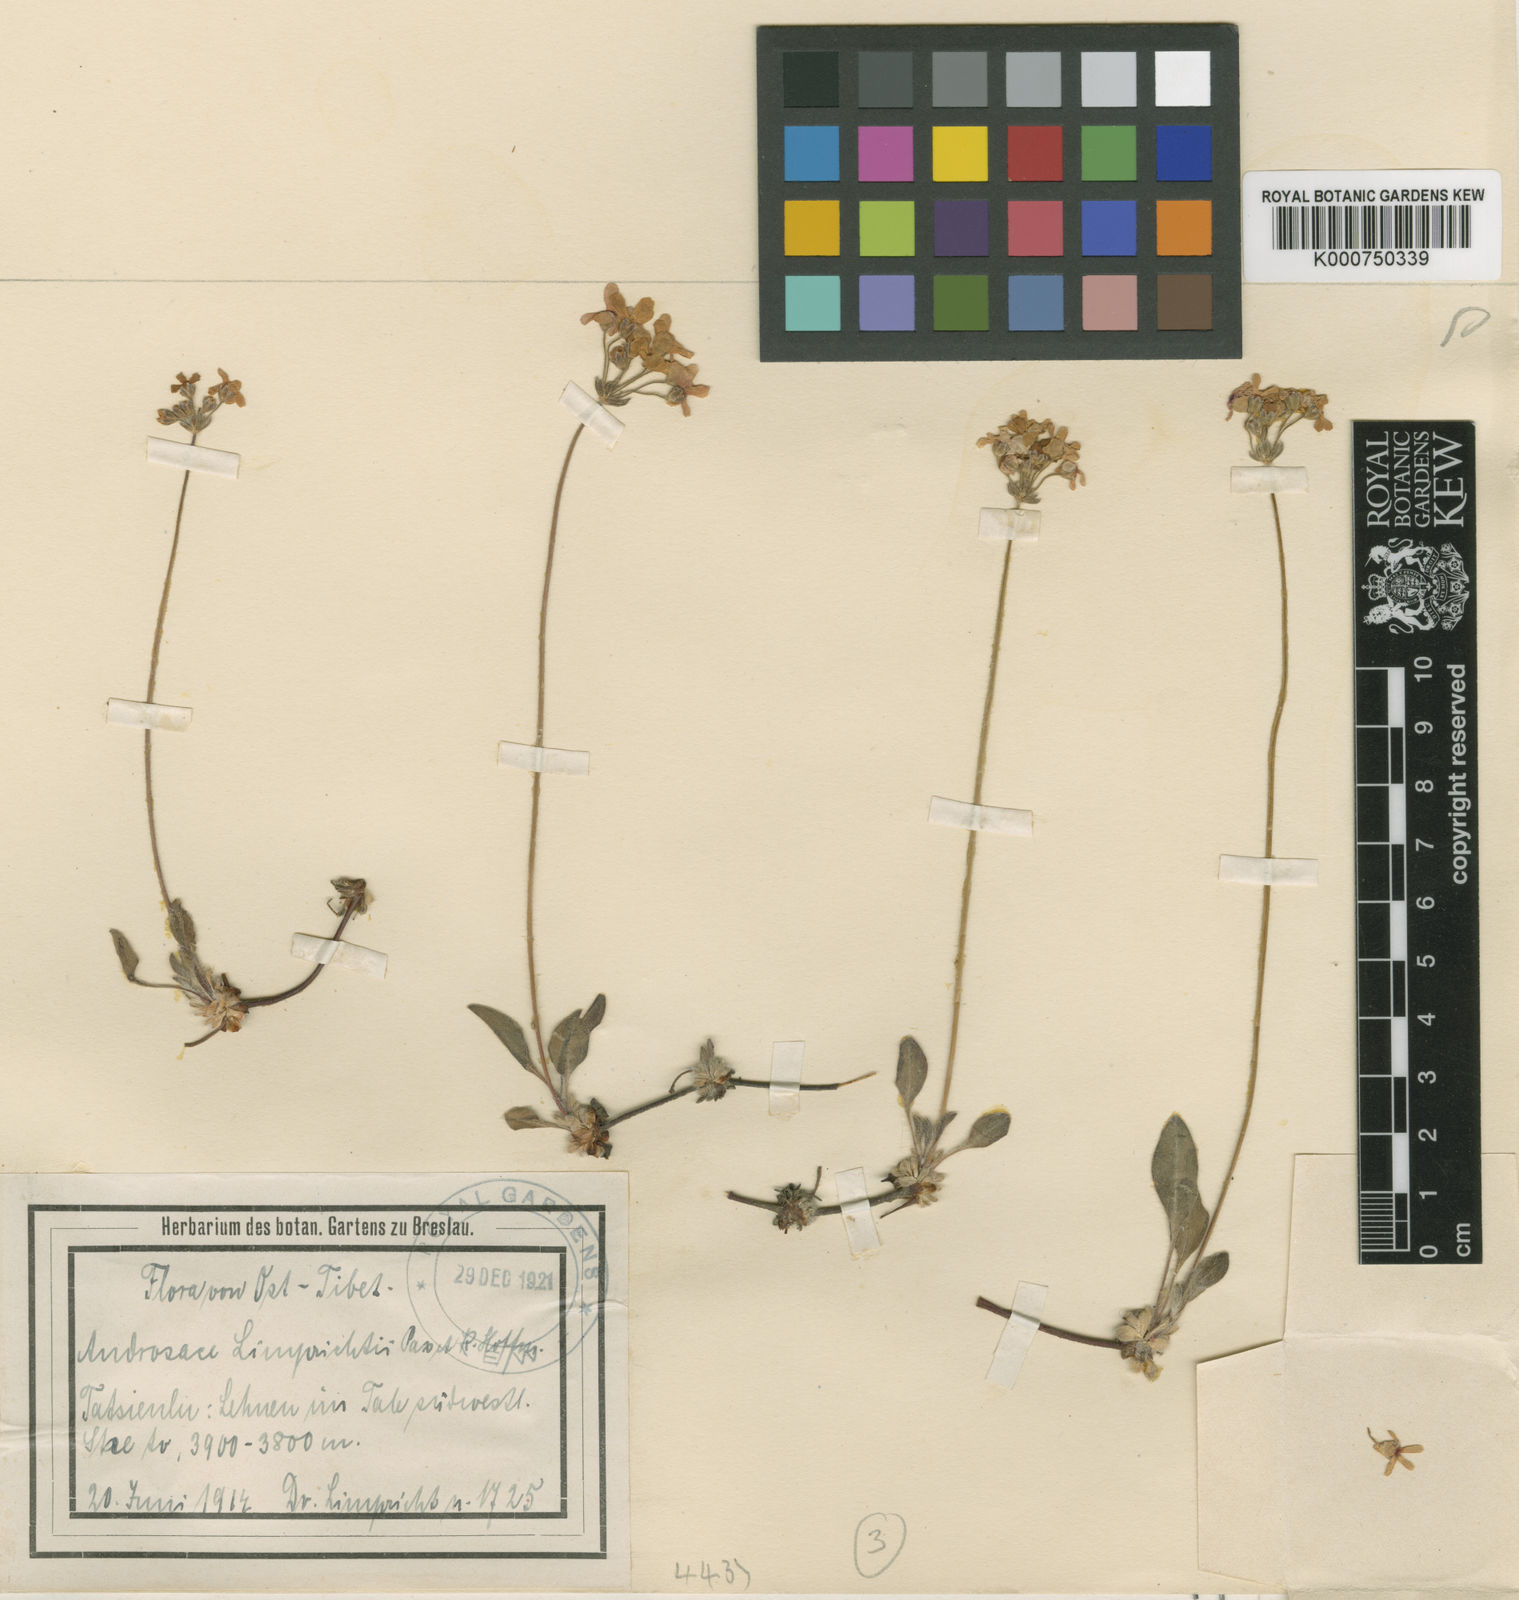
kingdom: Plantae
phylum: Tracheophyta
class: Magnoliopsida
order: Ericales
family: Primulaceae
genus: Androsace
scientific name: Androsace limprichtii
